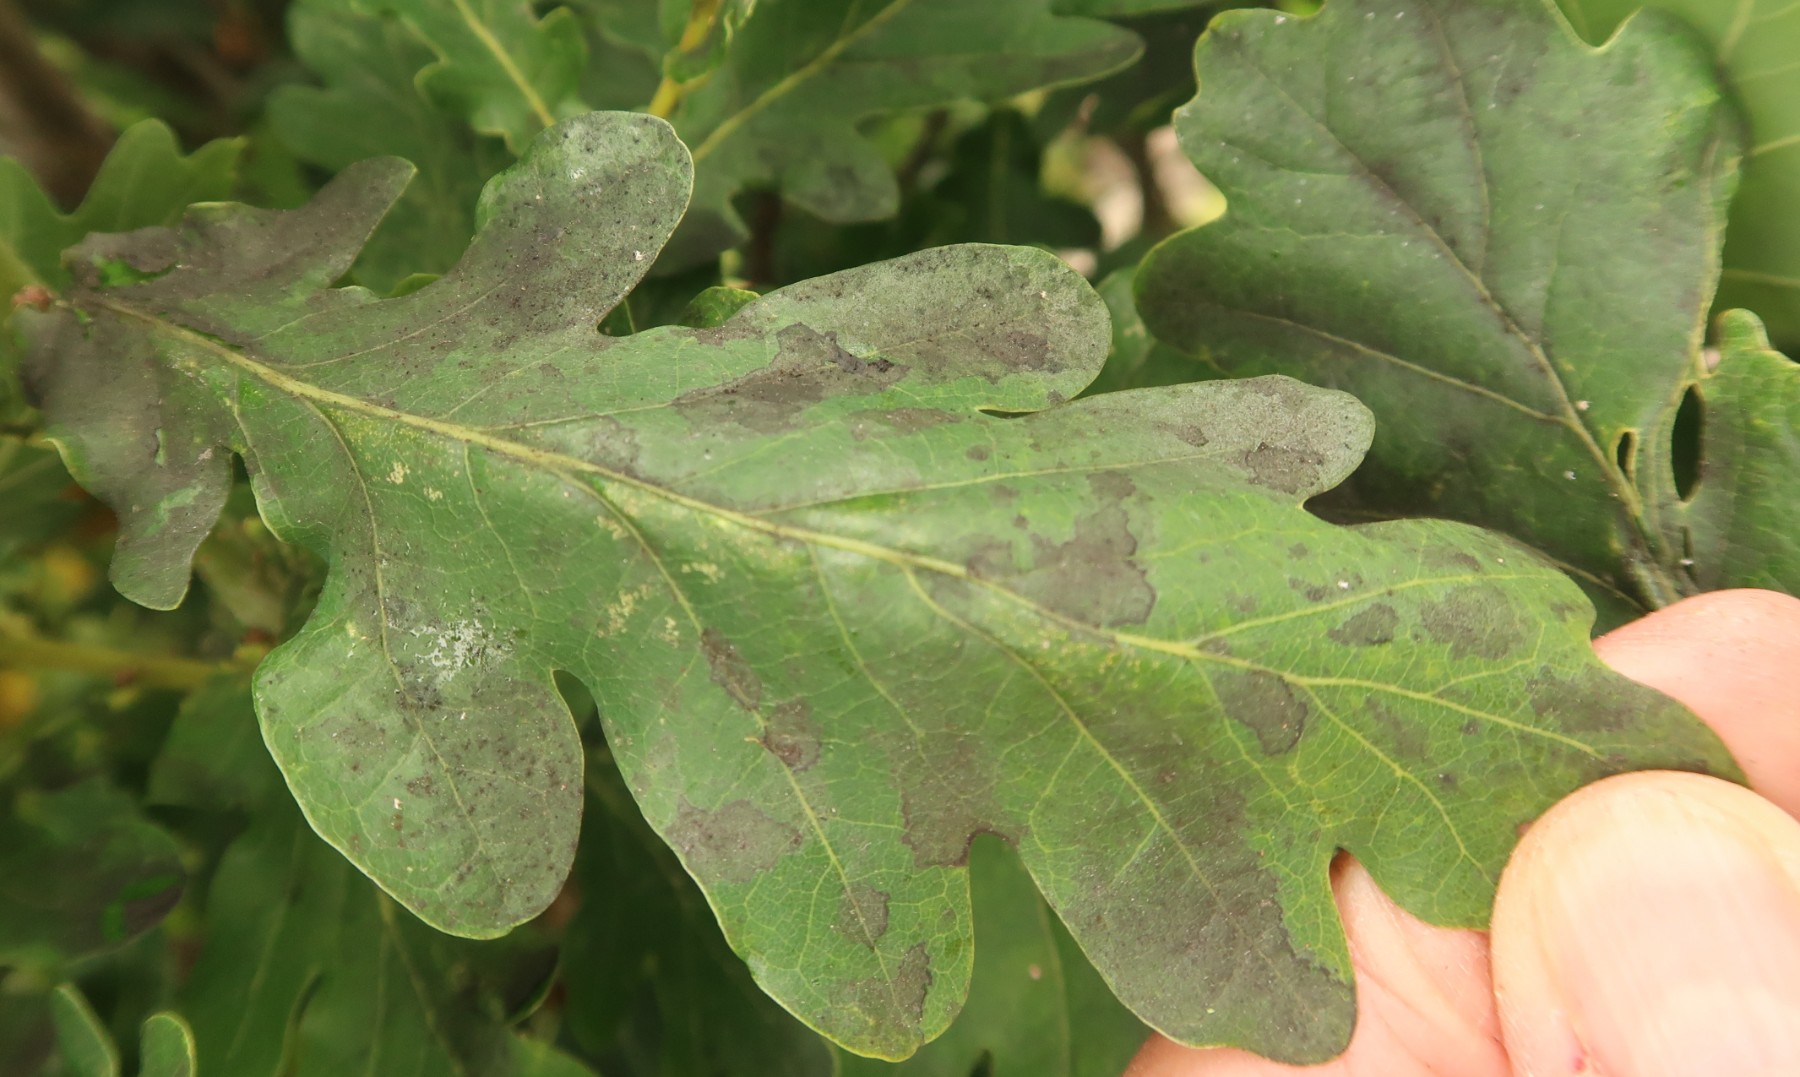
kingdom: Fungi
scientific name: Fungi
